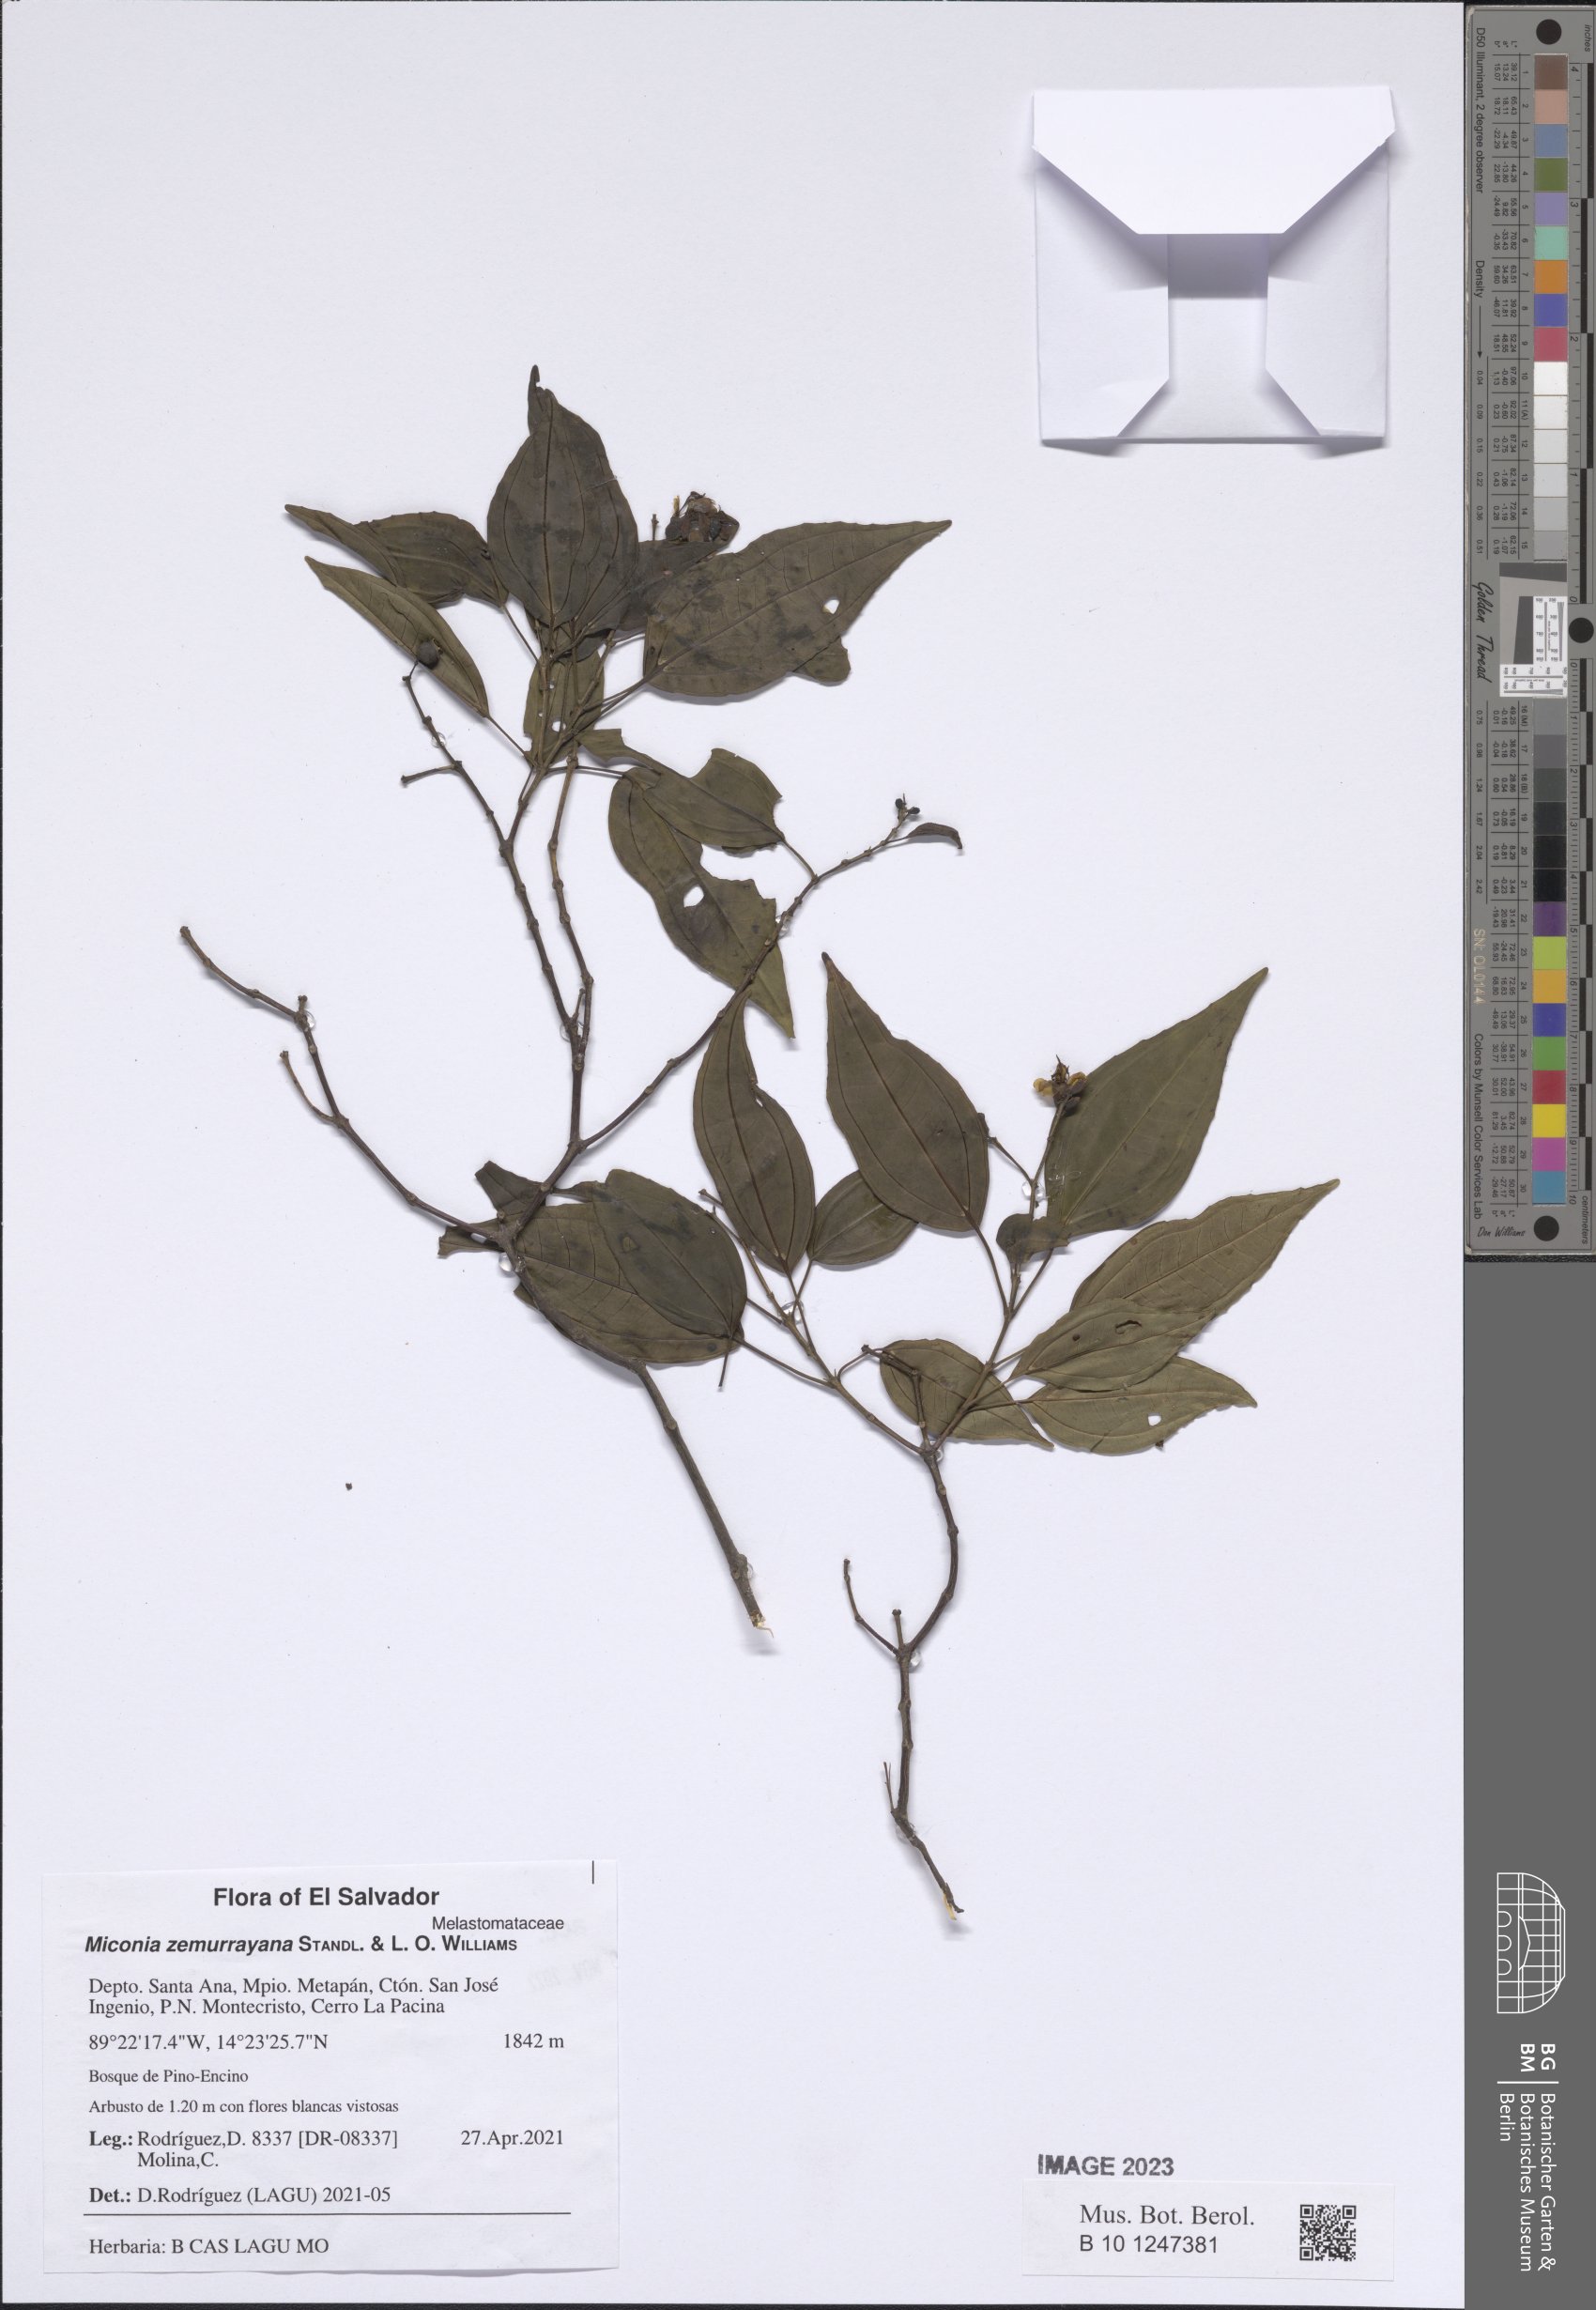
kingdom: Plantae
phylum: Tracheophyta
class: Magnoliopsida
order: Myrtales
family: Melastomataceae
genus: Miconia
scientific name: Miconia zemurrayana
